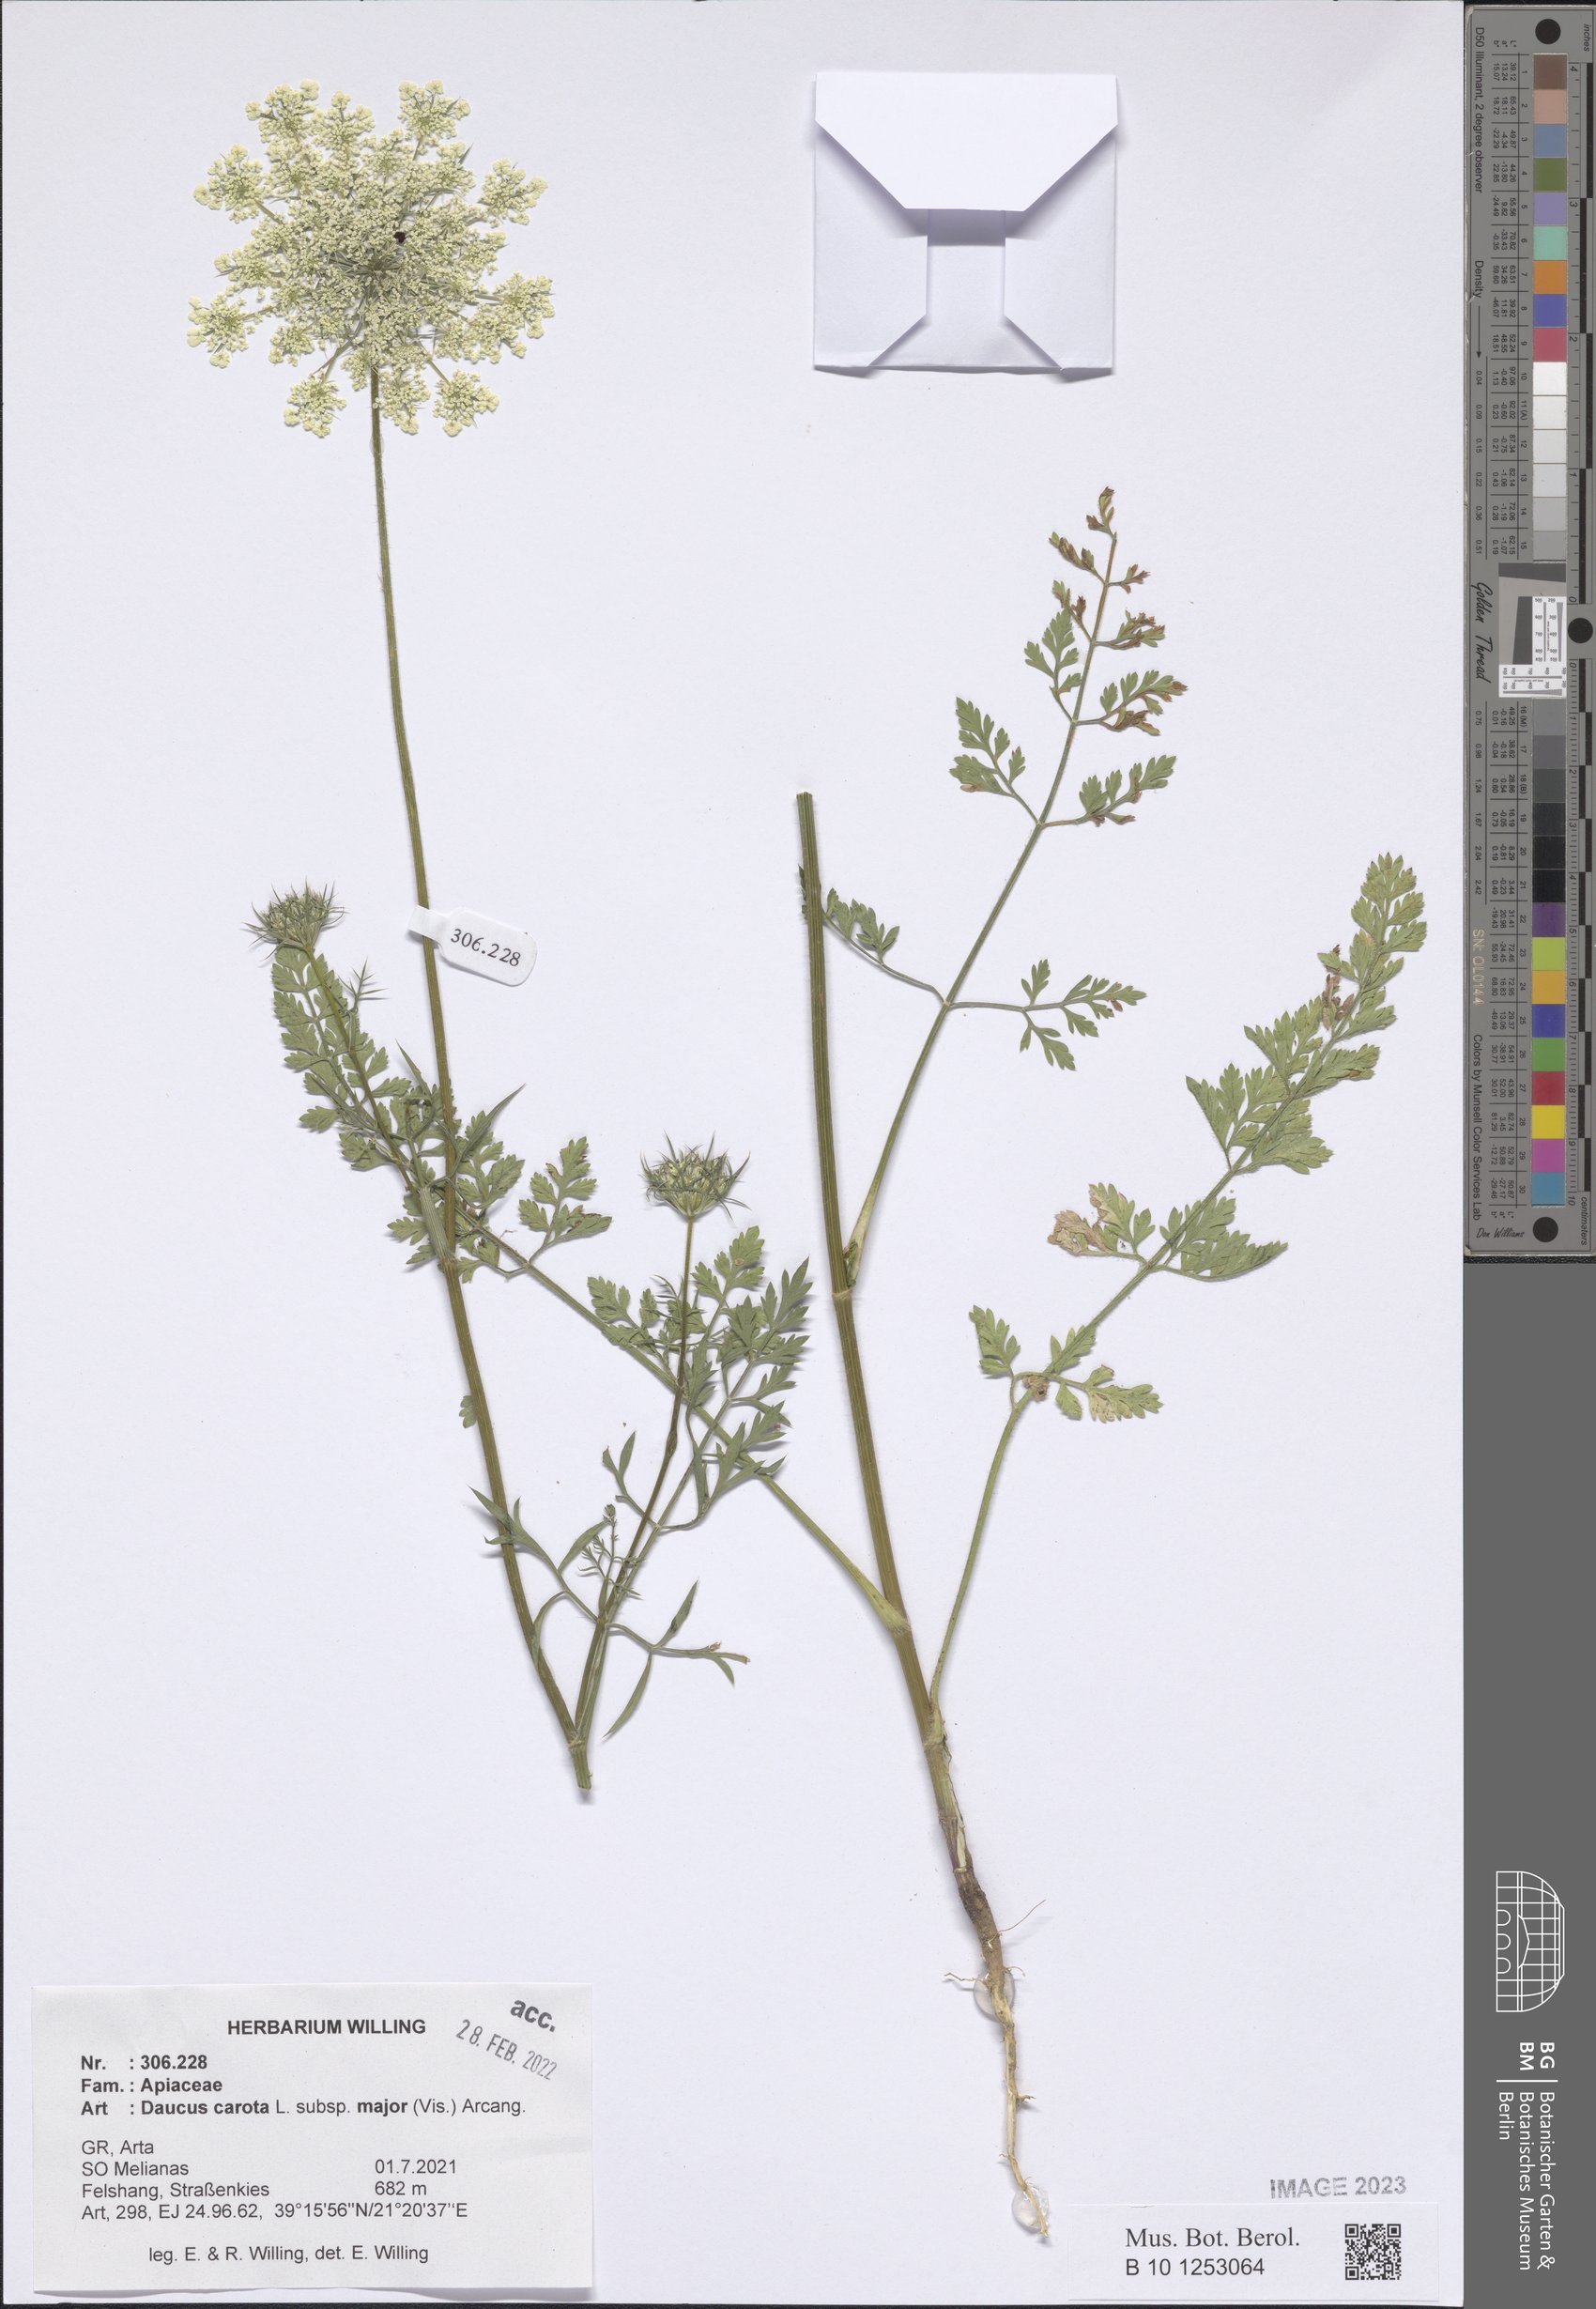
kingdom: Plantae
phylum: Tracheophyta
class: Magnoliopsida
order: Apiales
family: Apiaceae
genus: Daucus
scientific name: Daucus carota
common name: Wild carrot
